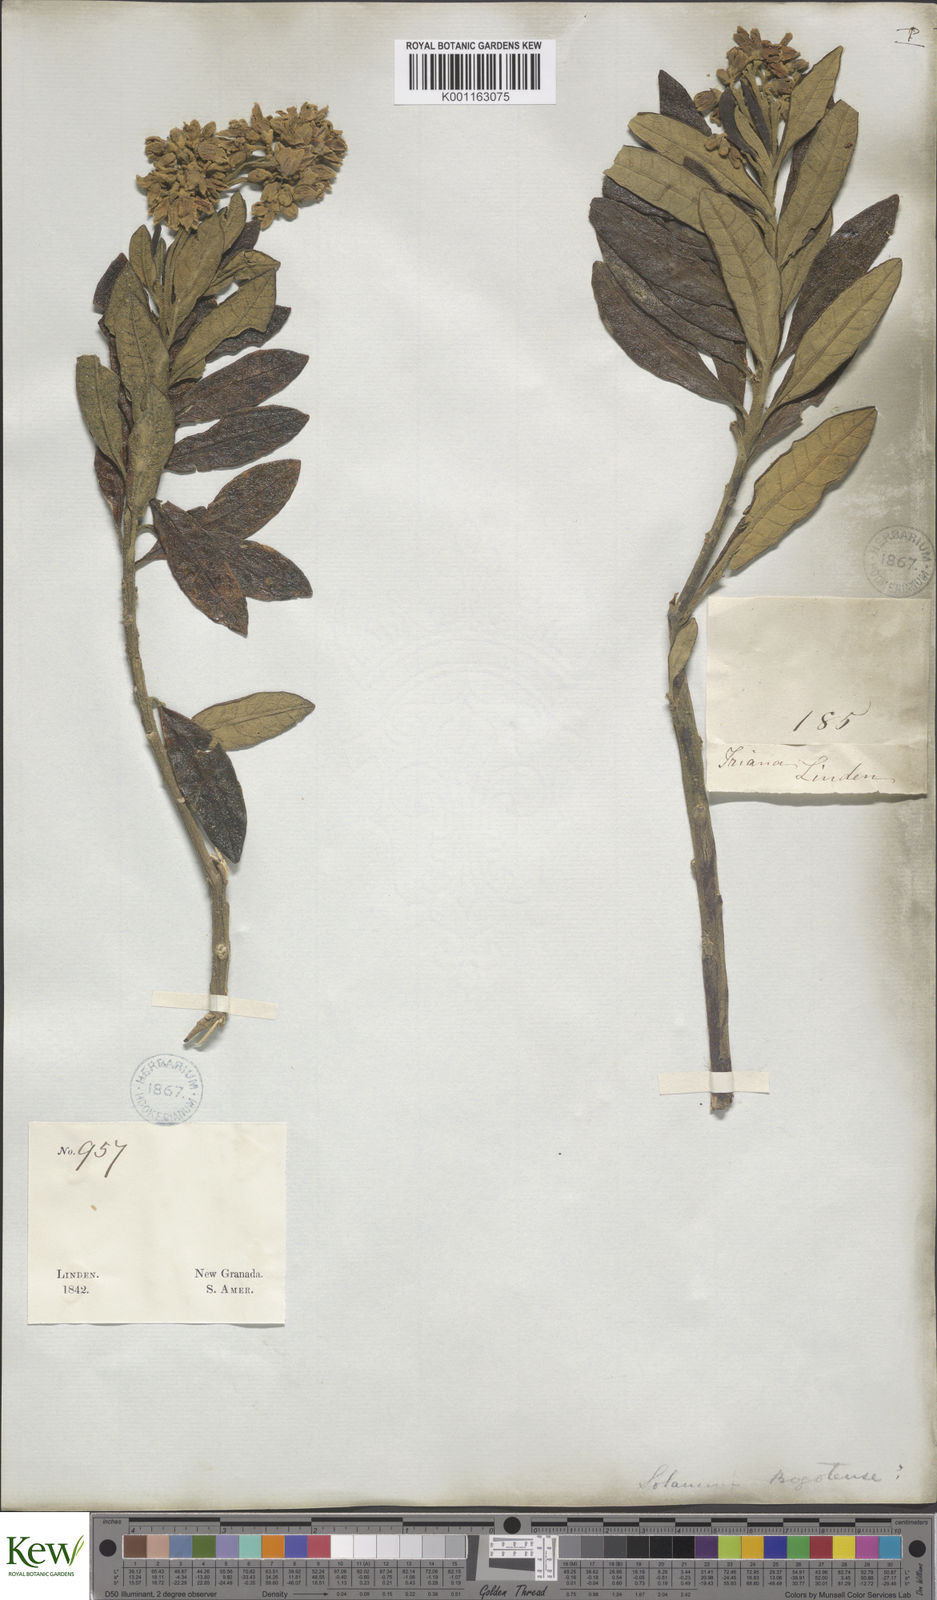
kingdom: Plantae
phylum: Tracheophyta
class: Magnoliopsida
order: Solanales
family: Solanaceae
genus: Solanum
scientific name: Solanum stenophyllum
